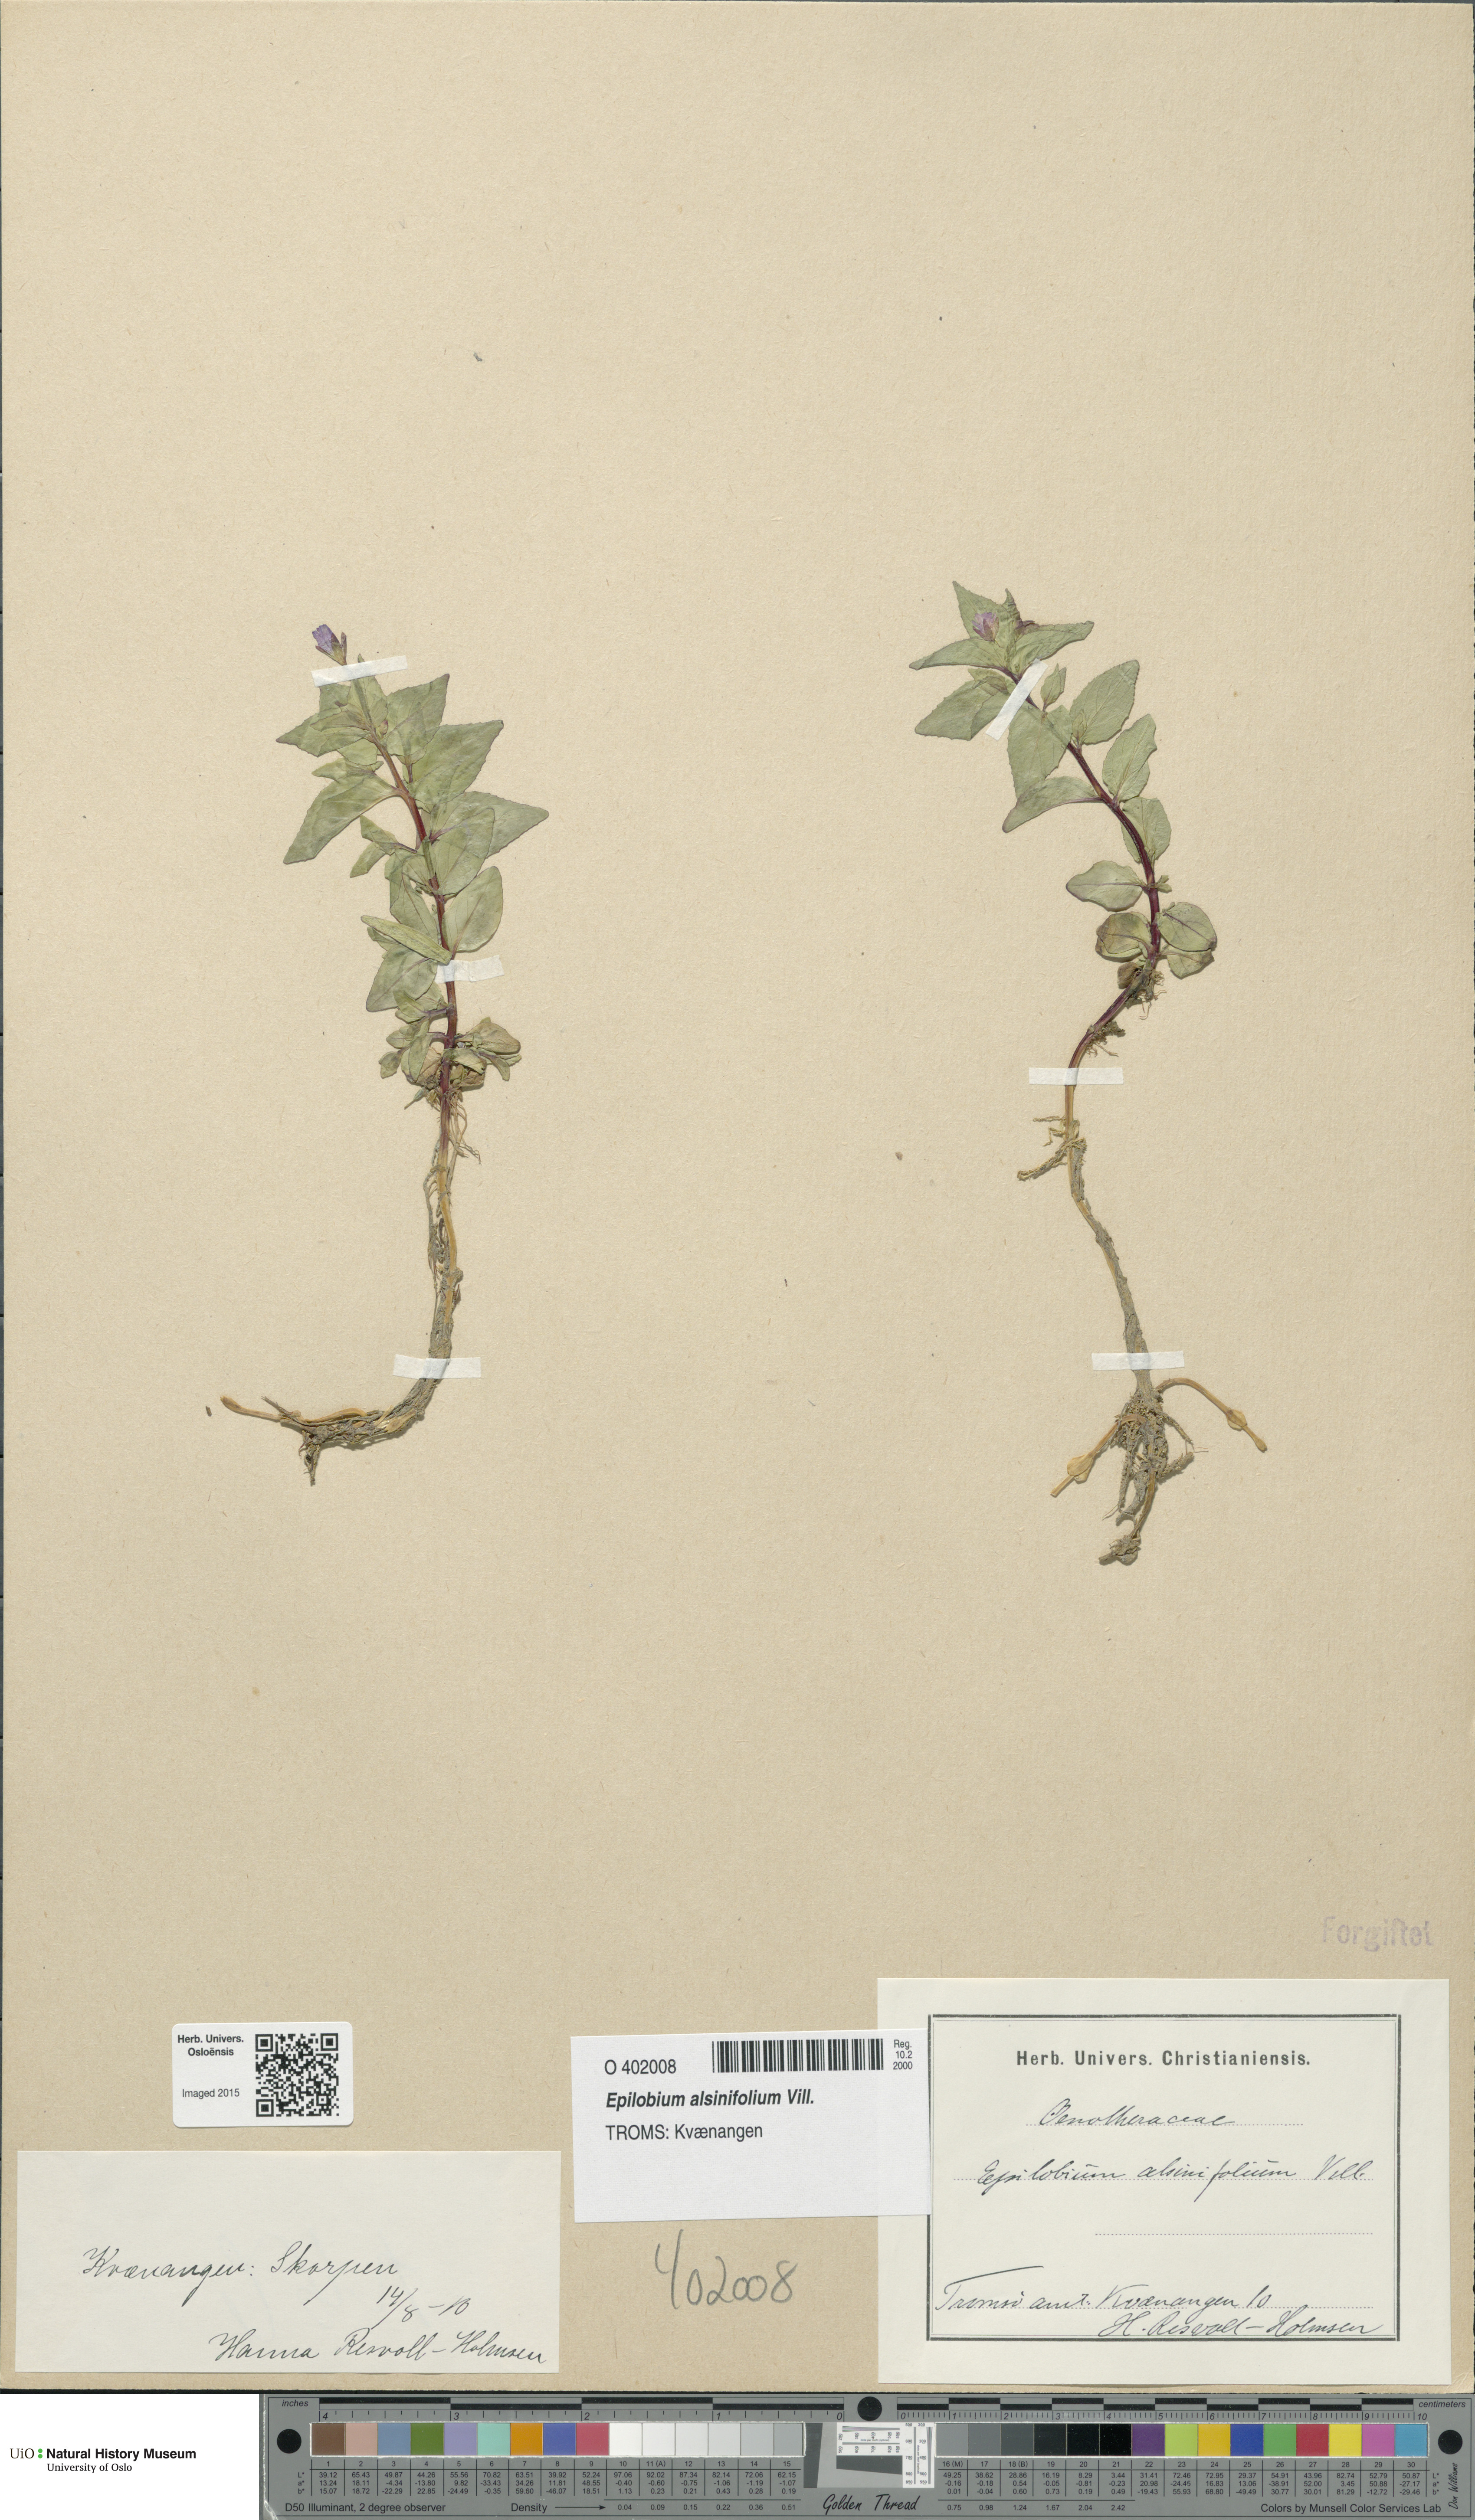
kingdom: Plantae
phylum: Tracheophyta
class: Magnoliopsida
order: Myrtales
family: Onagraceae
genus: Epilobium
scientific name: Epilobium alsinifolium
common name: Chickweed willowherb
